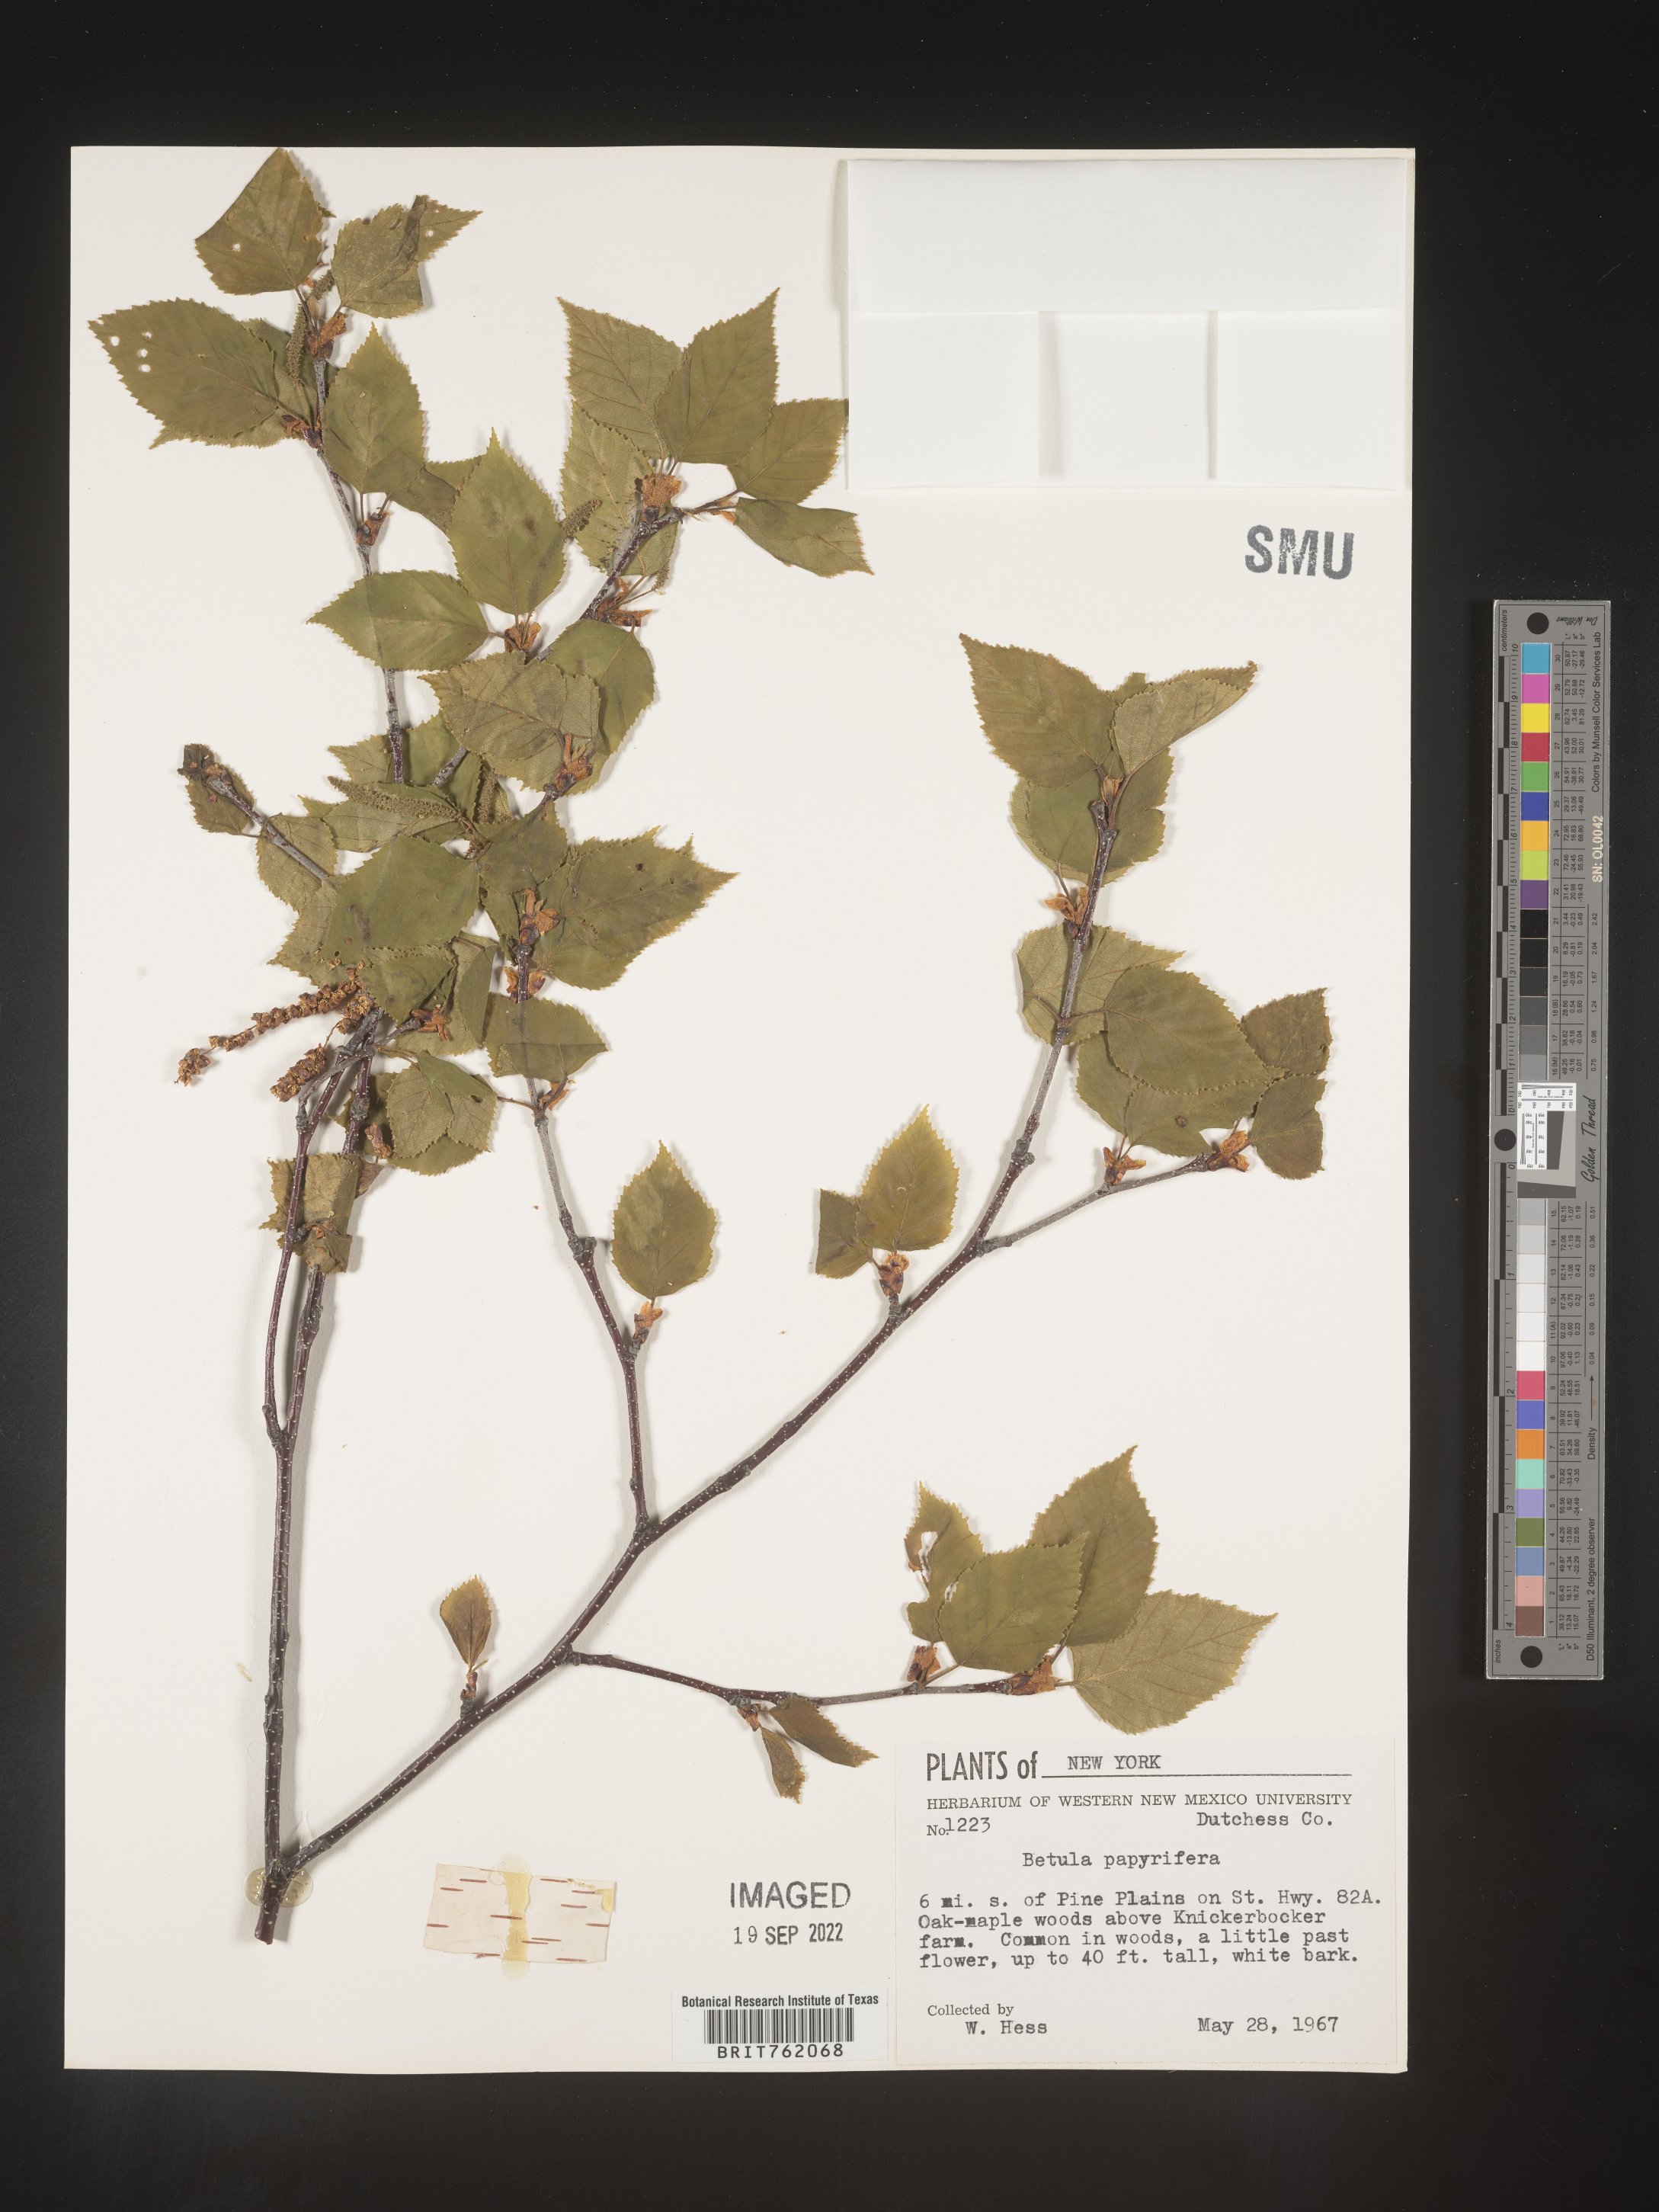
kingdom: Plantae
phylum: Tracheophyta
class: Magnoliopsida
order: Fagales
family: Betulaceae
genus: Betula
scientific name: Betula papyrifera
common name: Paper birch
